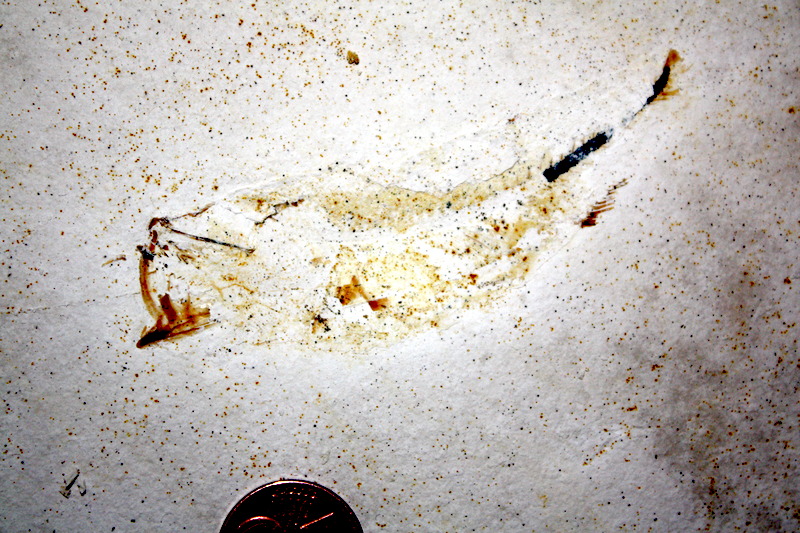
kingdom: Animalia
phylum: Chordata
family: Ascalaboidae
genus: Ebertichthys
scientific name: Ebertichthys ettlingensis
